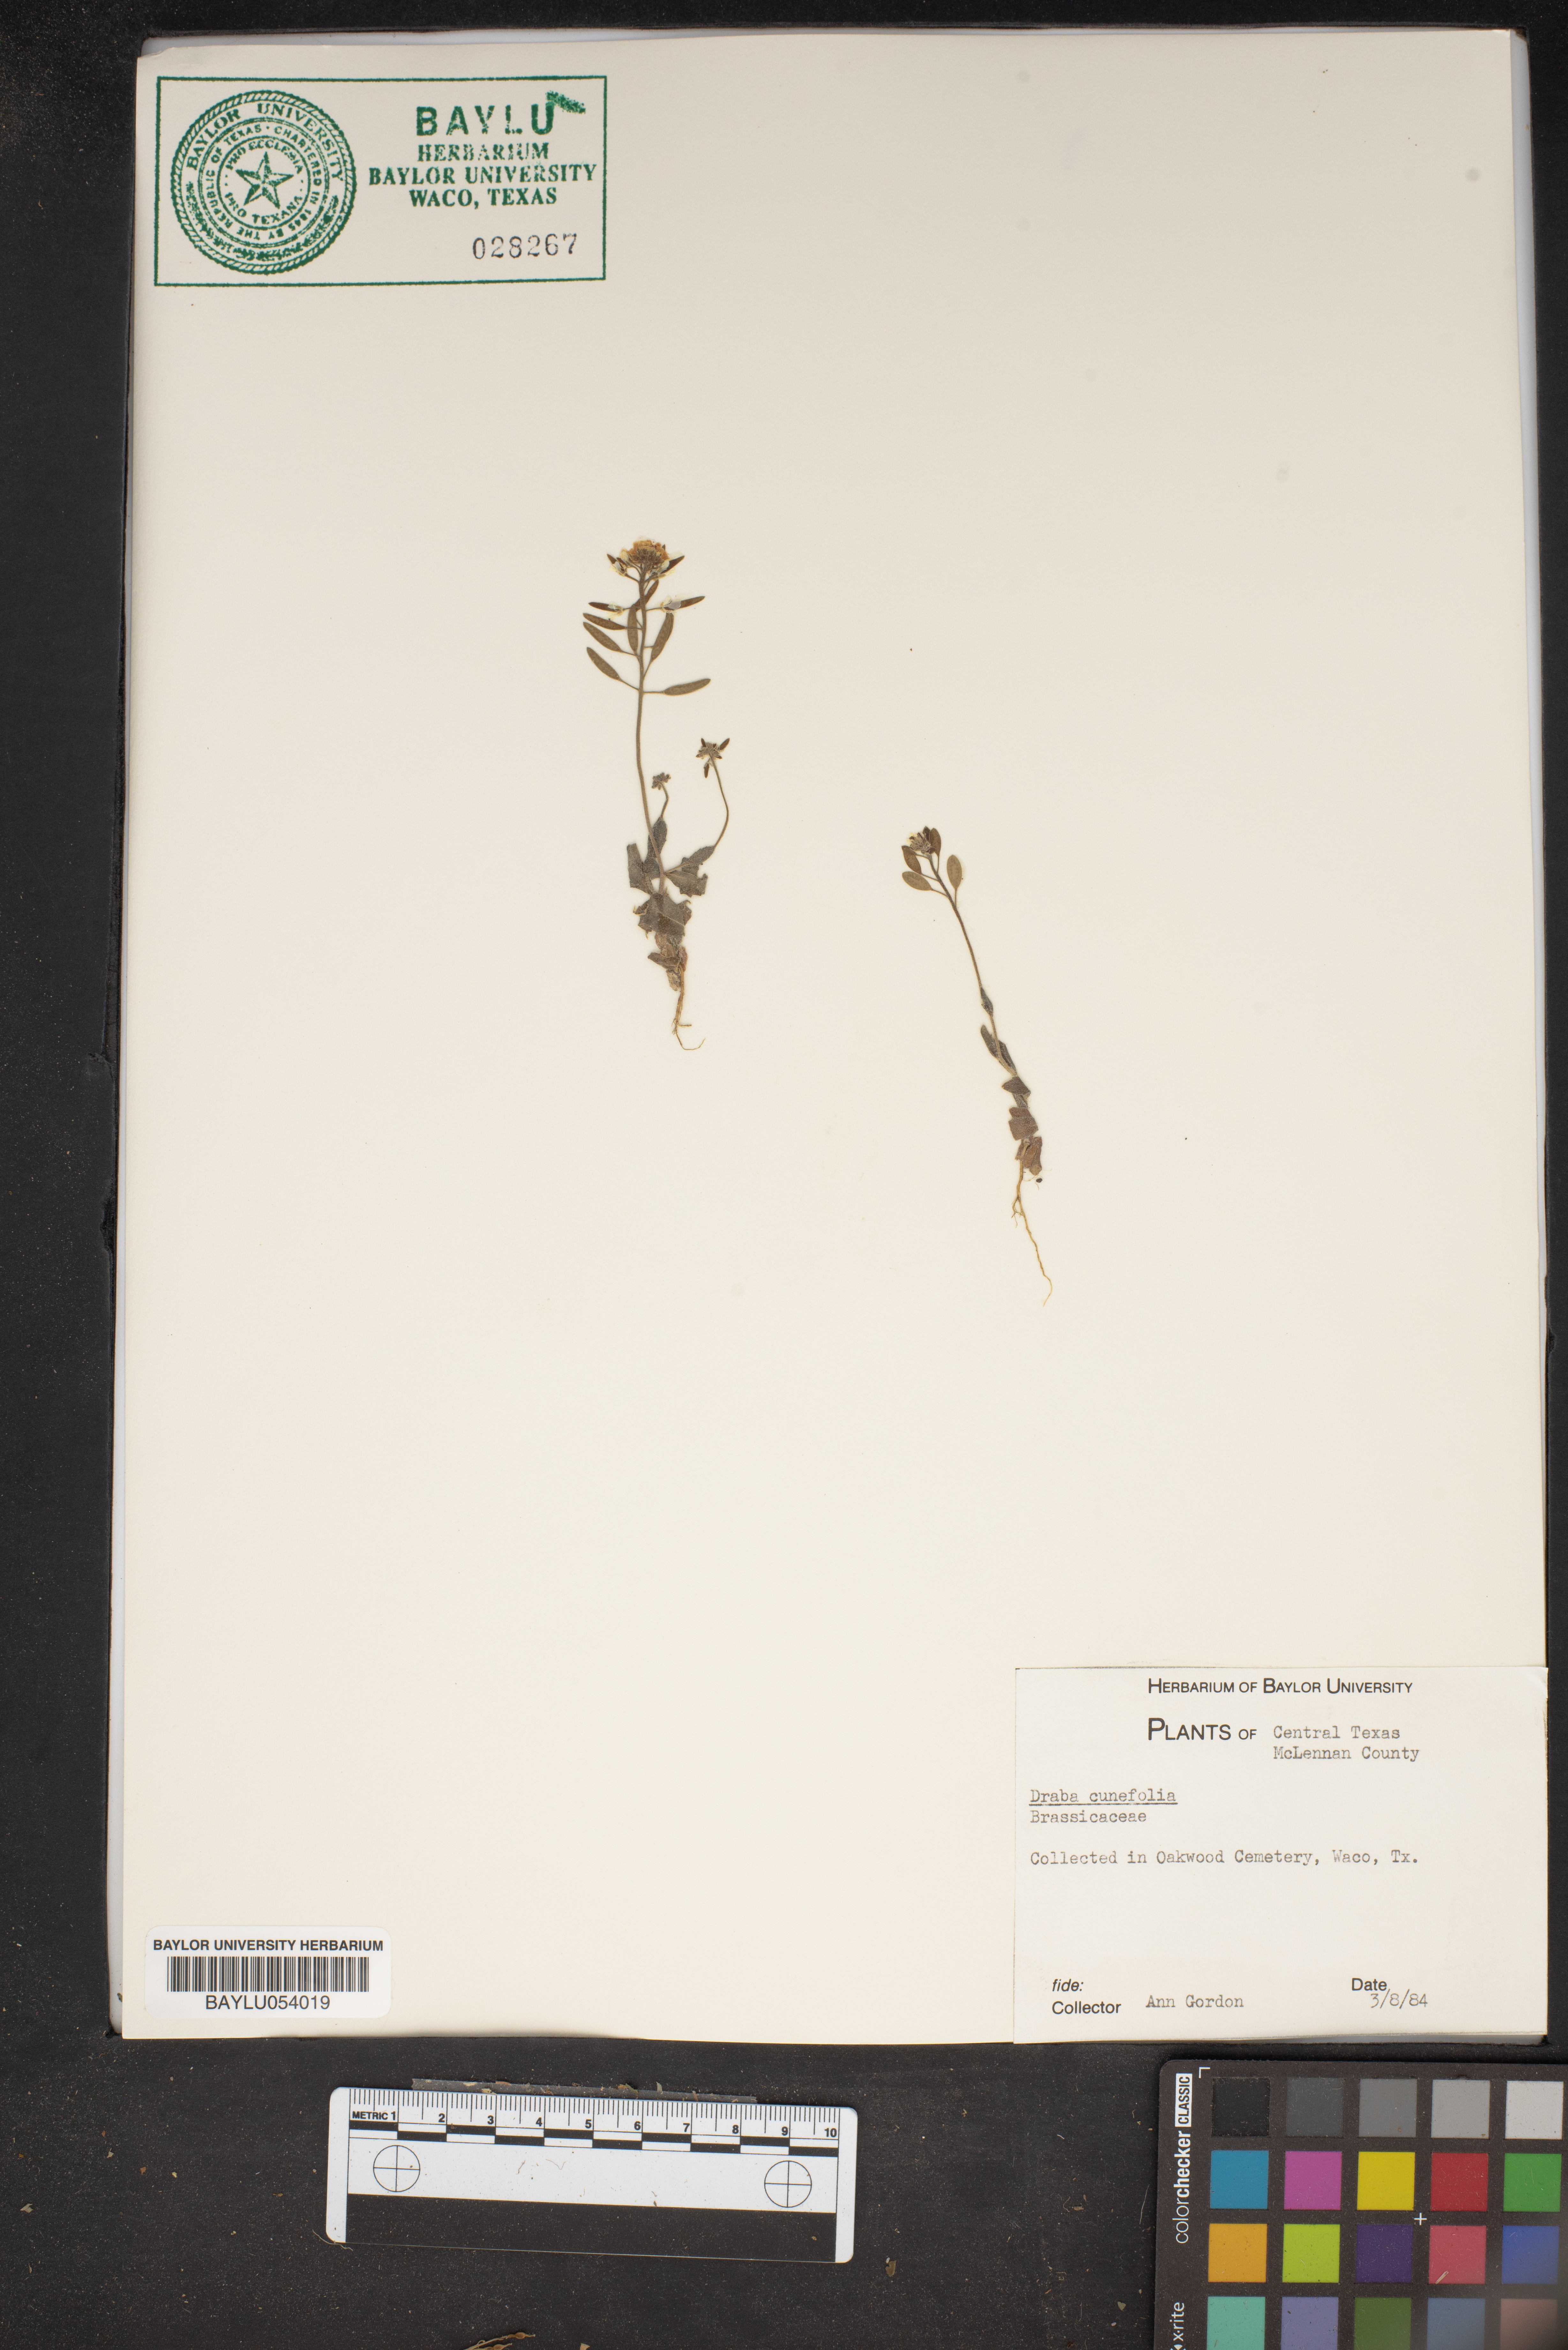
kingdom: Plantae
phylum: Tracheophyta
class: Magnoliopsida
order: Brassicales
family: Brassicaceae
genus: Tomostima
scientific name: Tomostima cuneifolia
